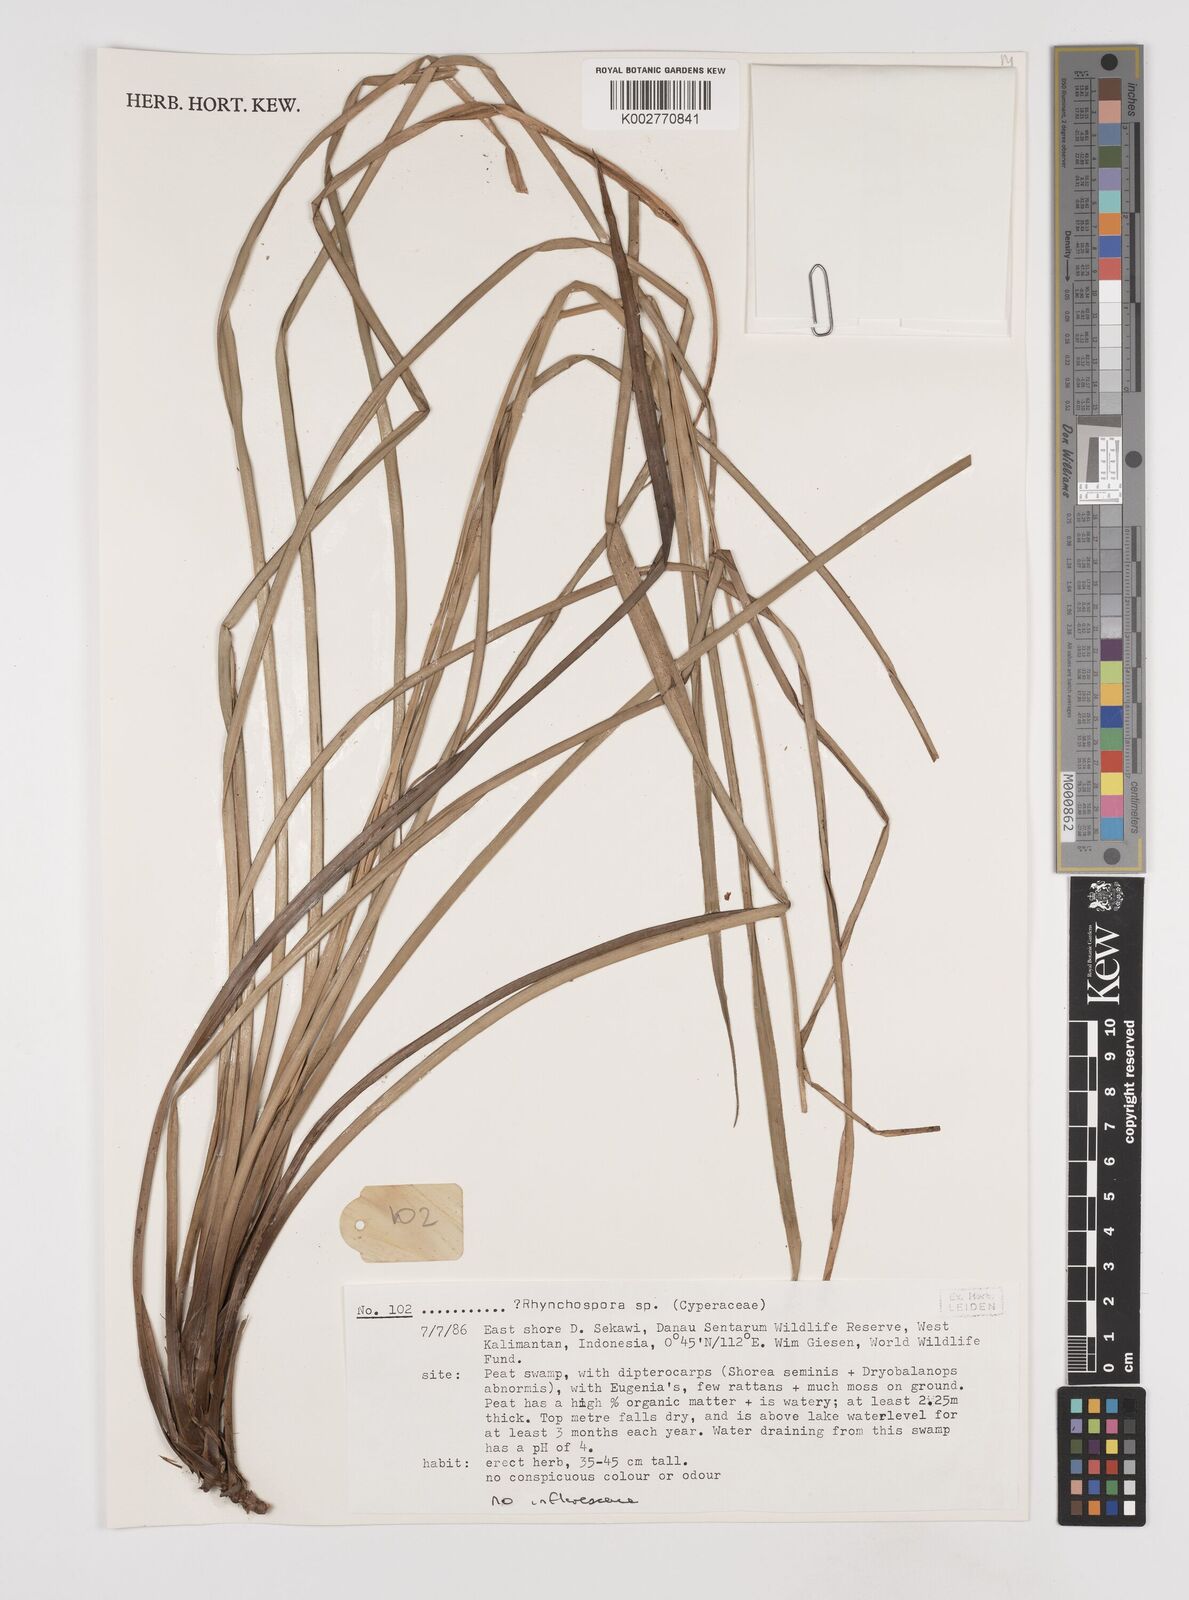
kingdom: Plantae
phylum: Tracheophyta
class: Liliopsida
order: Poales
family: Cyperaceae
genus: Rhynchospora
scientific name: Rhynchospora
